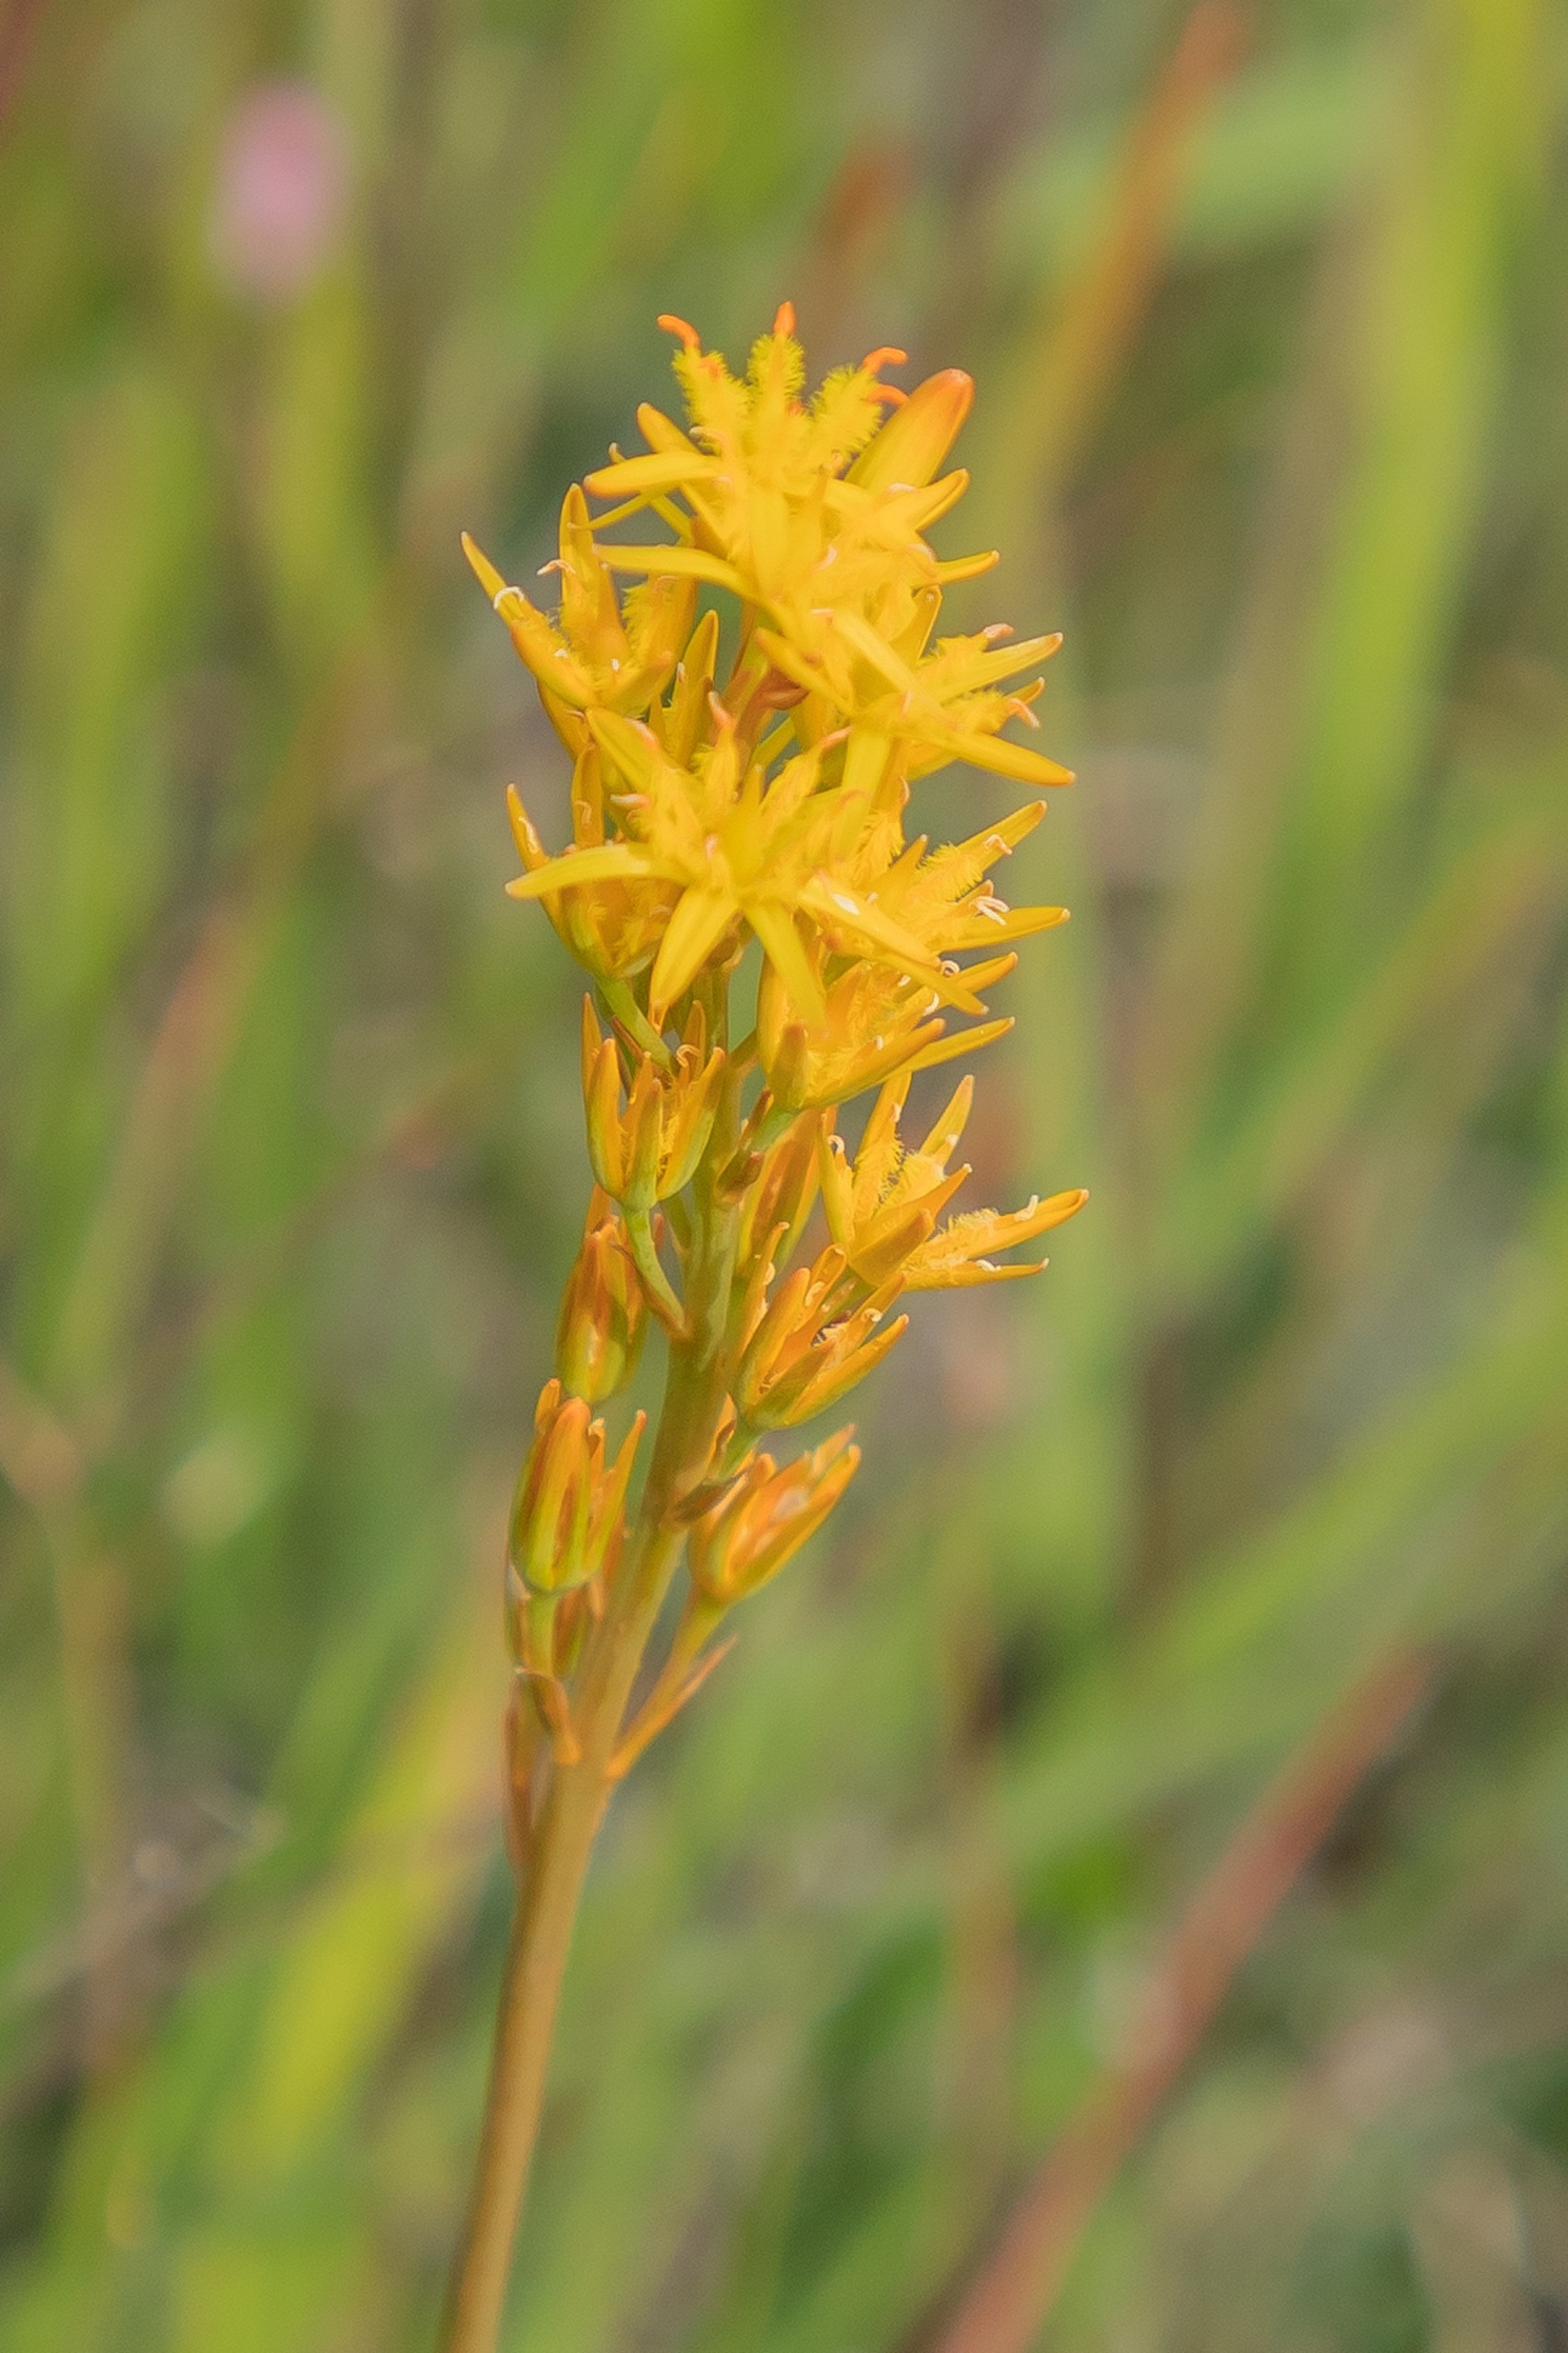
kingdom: Plantae
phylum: Tracheophyta
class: Liliopsida
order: Dioscoreales
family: Nartheciaceae
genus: Narthecium
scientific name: Narthecium ossifragum
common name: Benbræk
